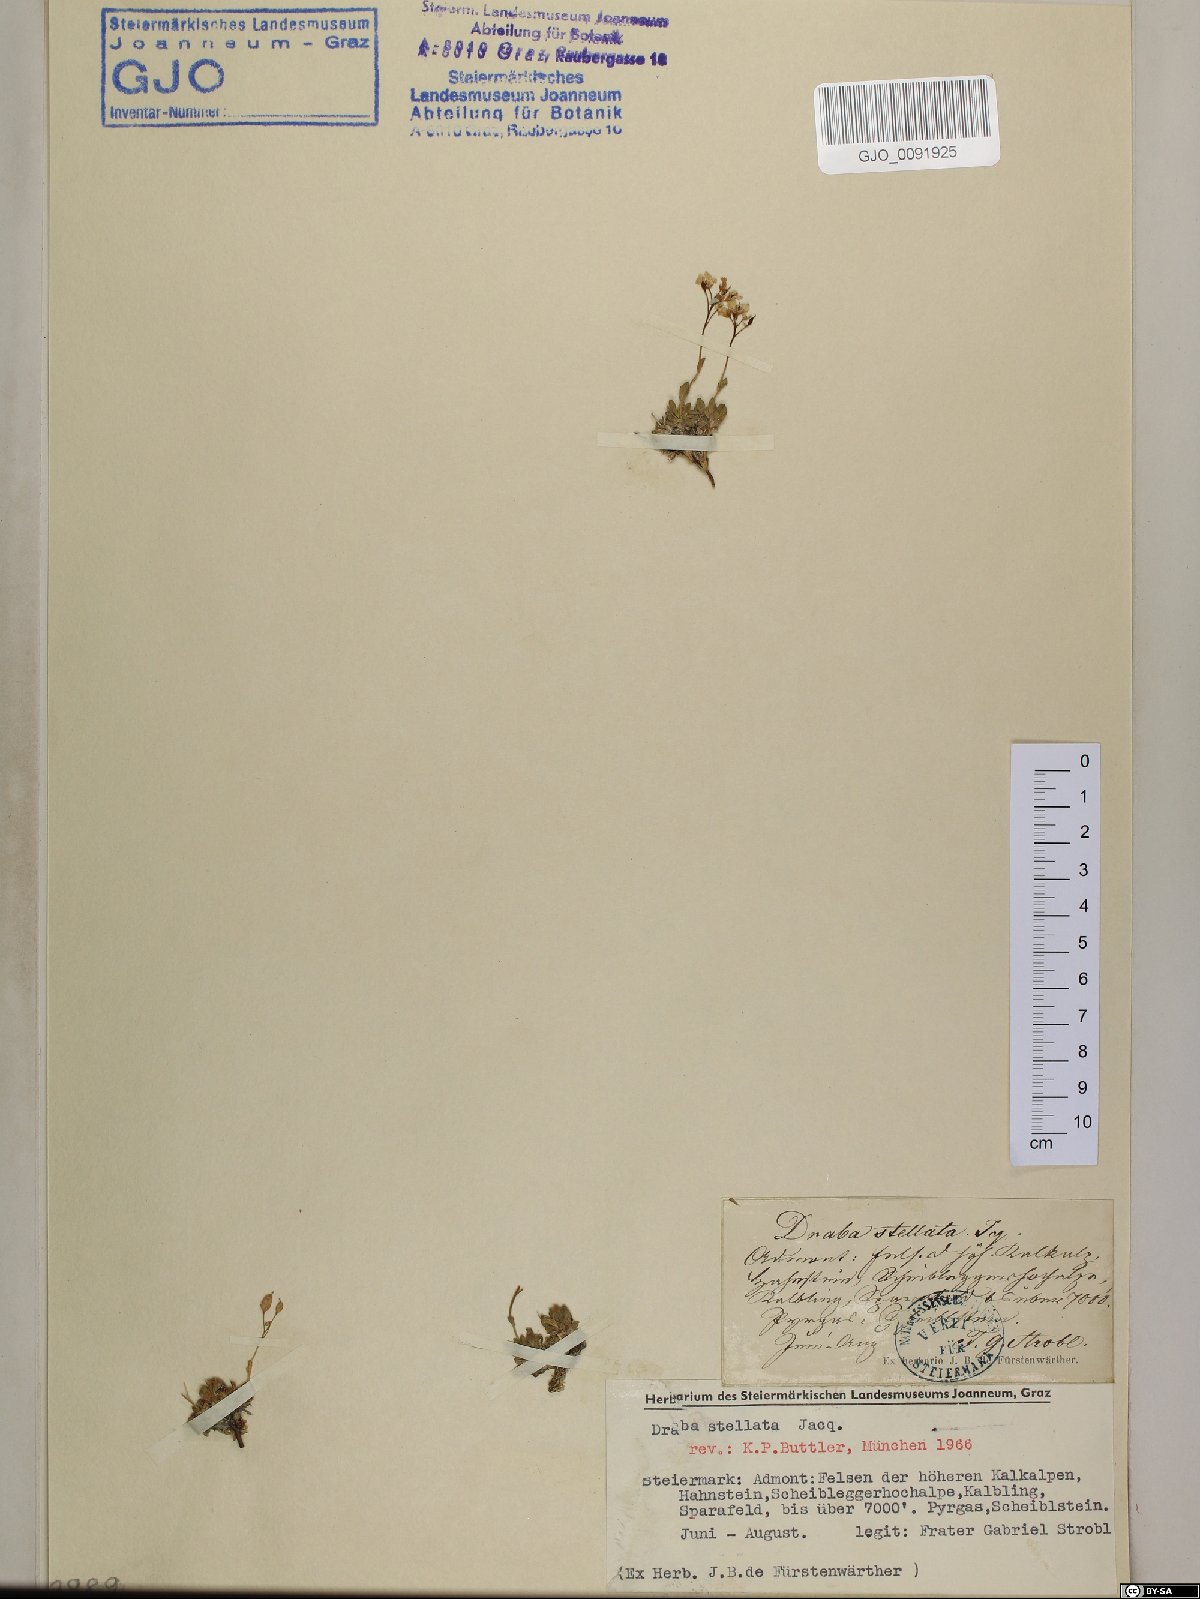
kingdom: Plantae
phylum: Tracheophyta
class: Magnoliopsida
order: Brassicales
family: Brassicaceae
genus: Draba
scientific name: Draba stellata
